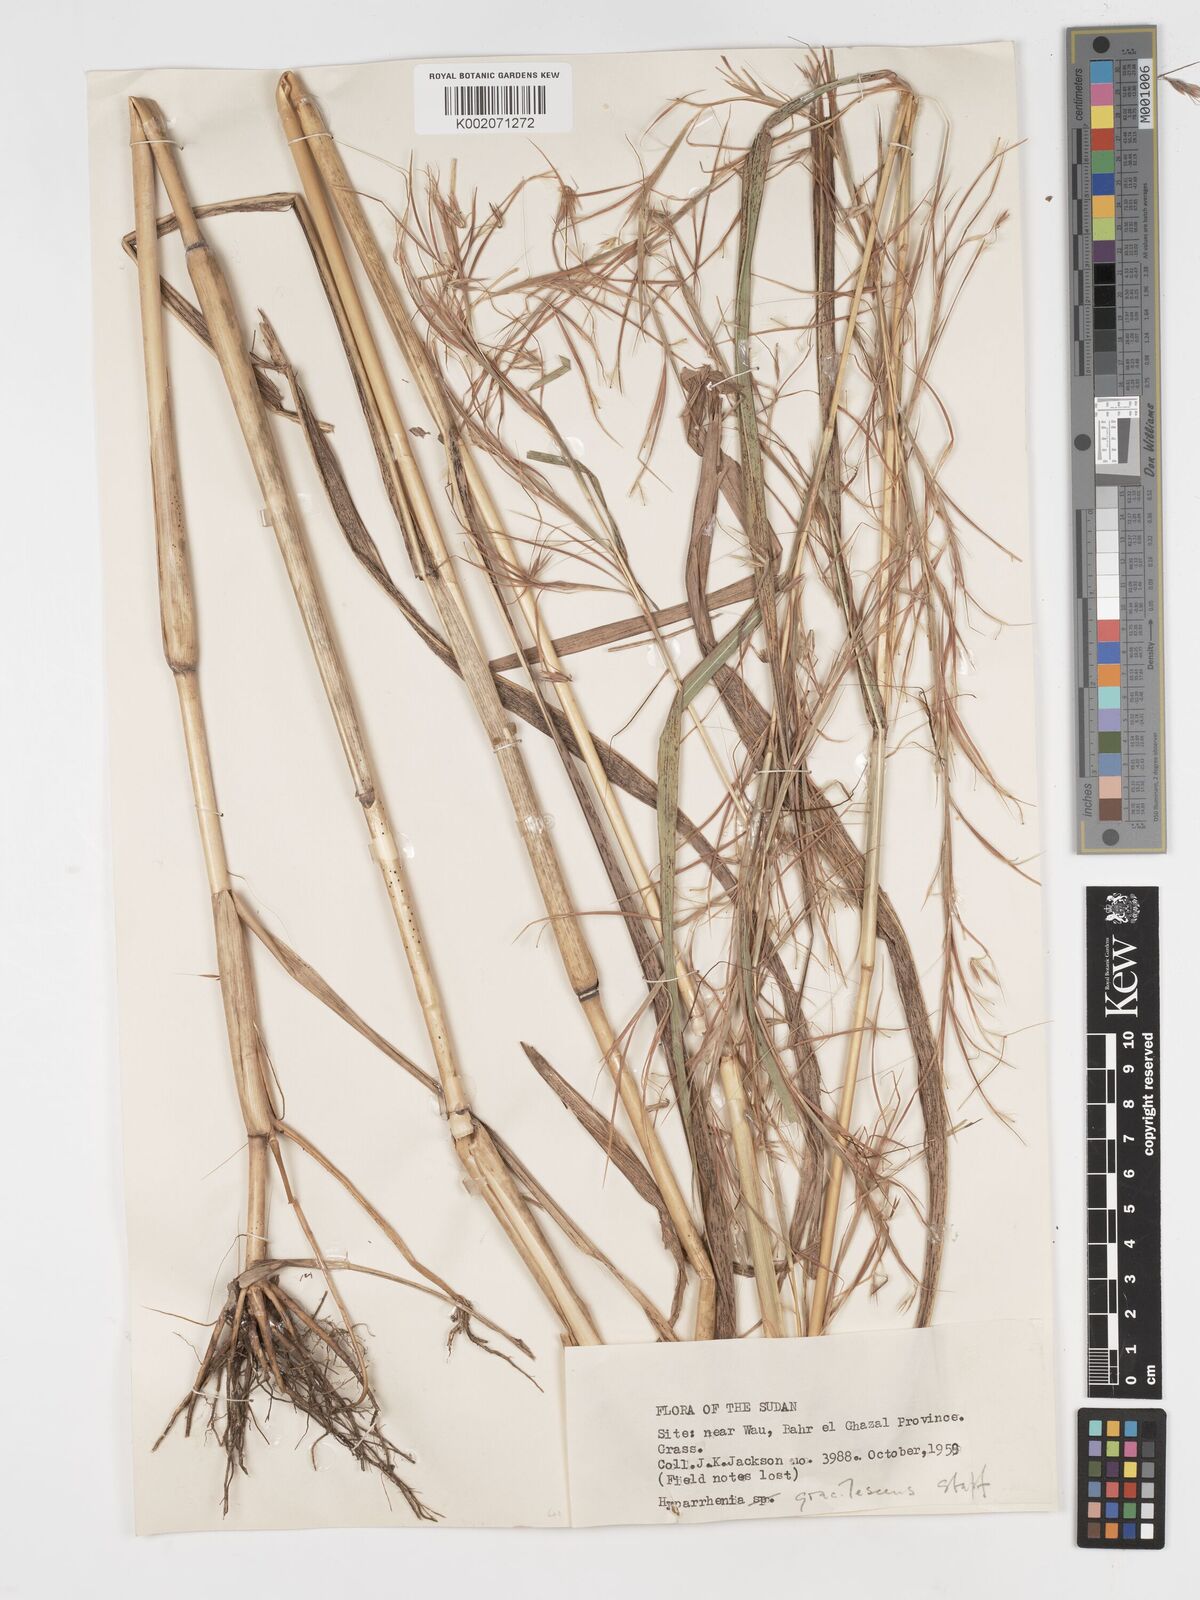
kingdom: Plantae
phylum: Tracheophyta
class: Liliopsida
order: Poales
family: Poaceae
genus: Hyparrhenia
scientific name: Hyparrhenia welwitschii
